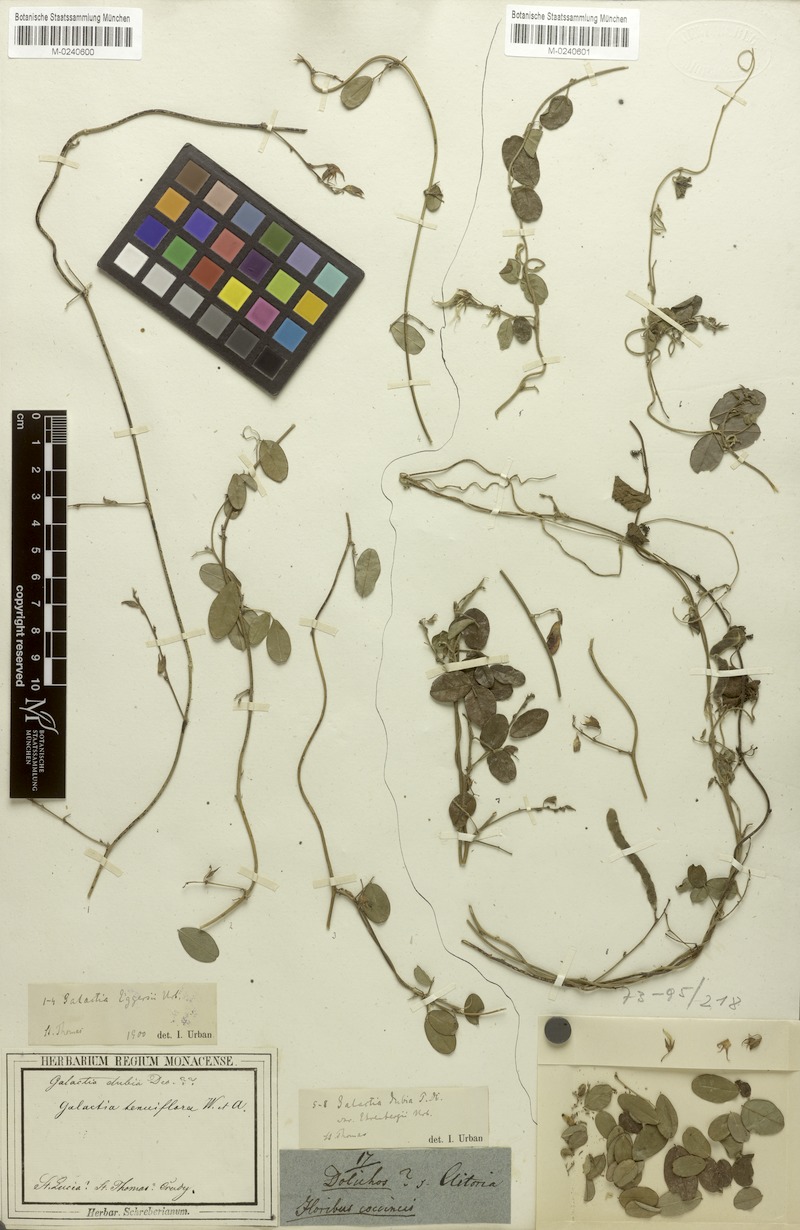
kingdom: Plantae
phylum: Tracheophyta
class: Magnoliopsida
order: Fabales
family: Fabaceae
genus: Galactia
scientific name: Galactia dubia
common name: West indian milkpea
